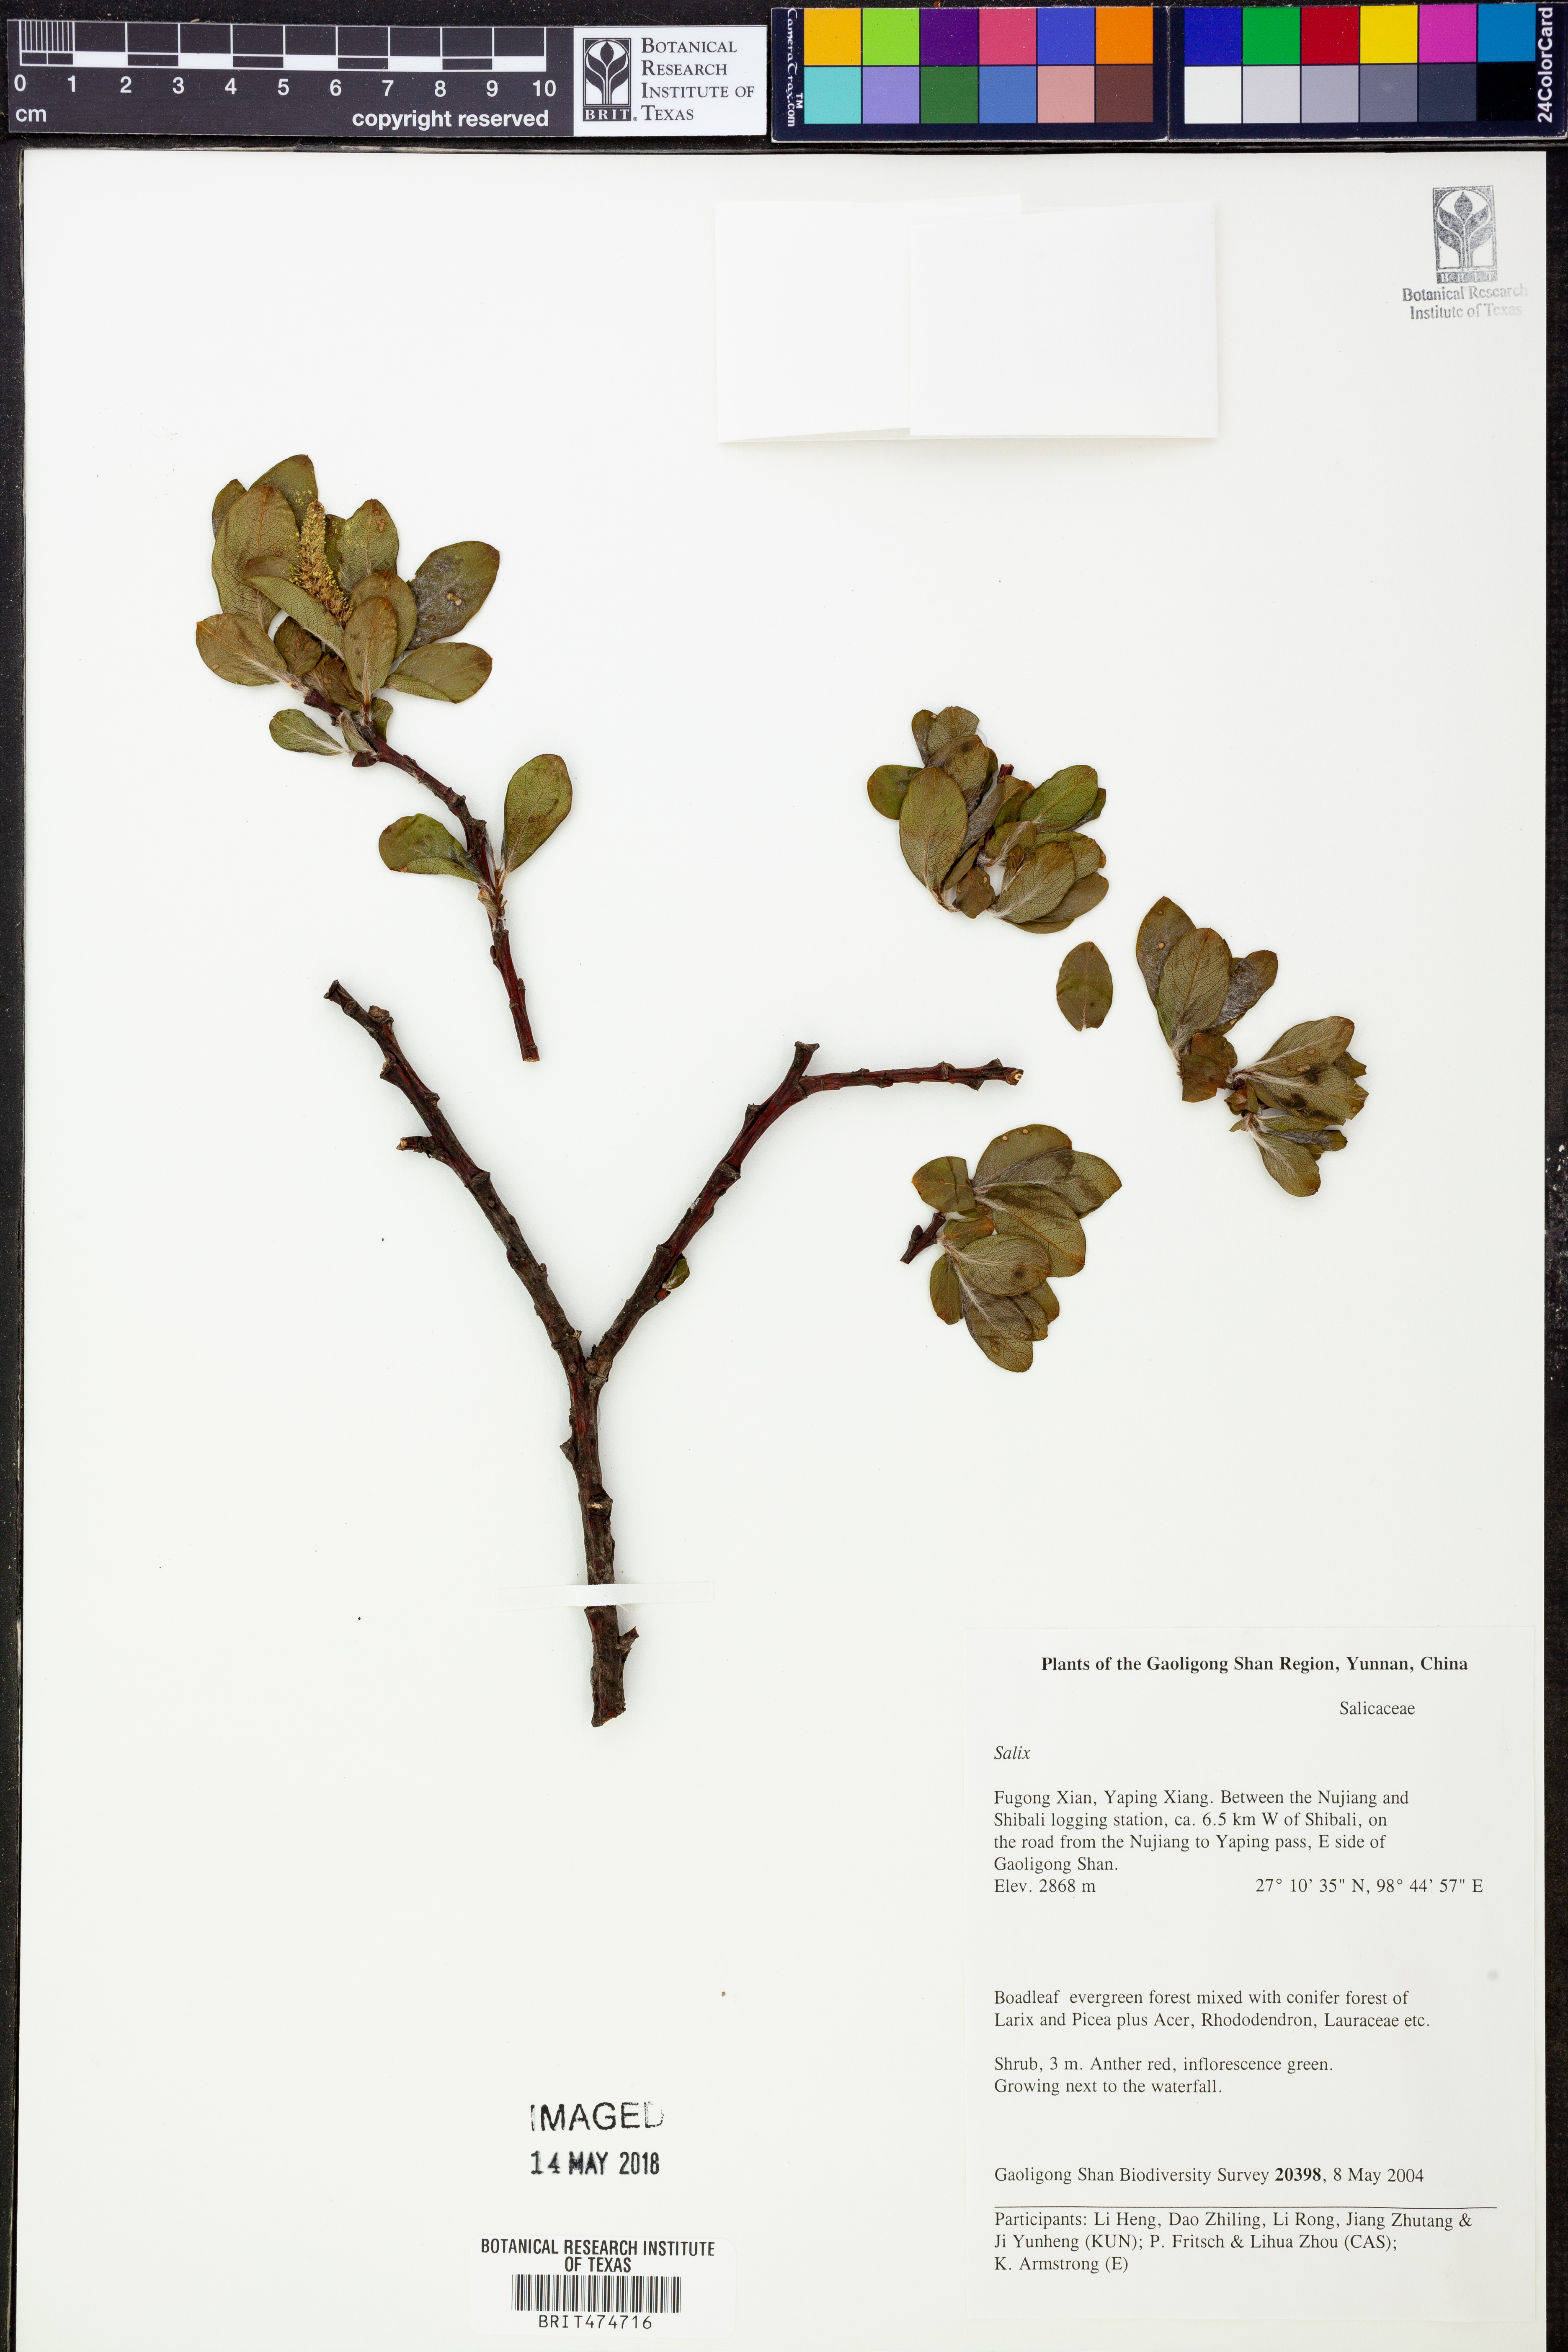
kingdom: Plantae
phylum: Tracheophyta
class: Magnoliopsida
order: Malpighiales
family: Salicaceae
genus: Salix
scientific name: Salix
